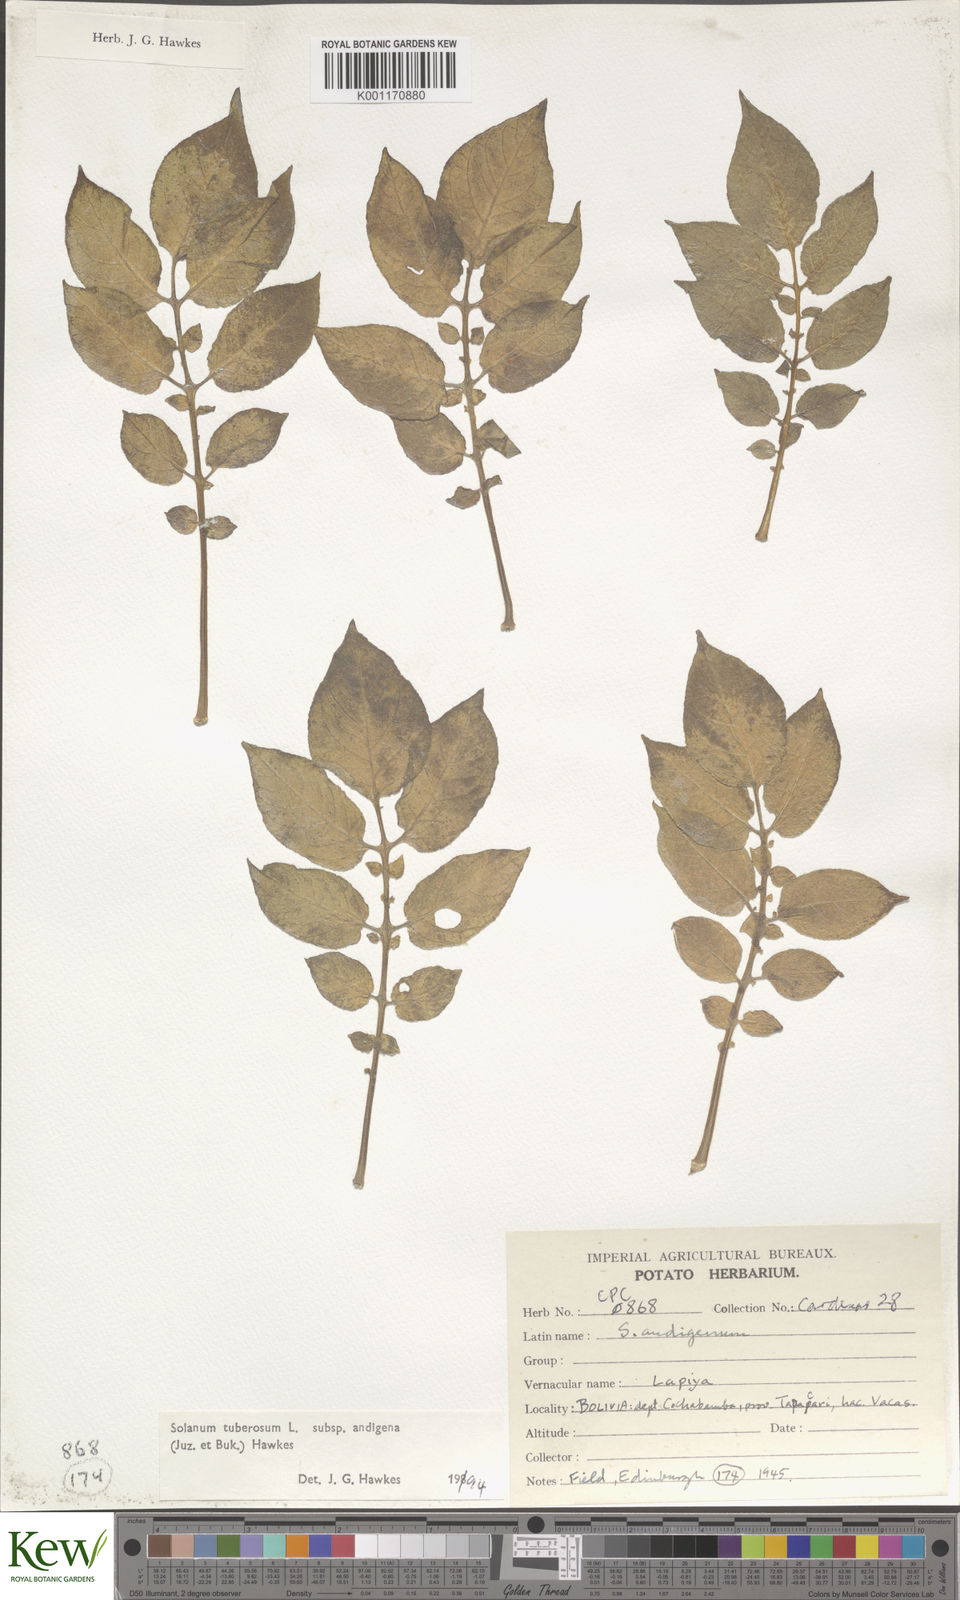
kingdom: Plantae
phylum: Tracheophyta
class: Magnoliopsida
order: Solanales
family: Solanaceae
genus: Solanum
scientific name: Solanum tuberosum
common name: Potato
